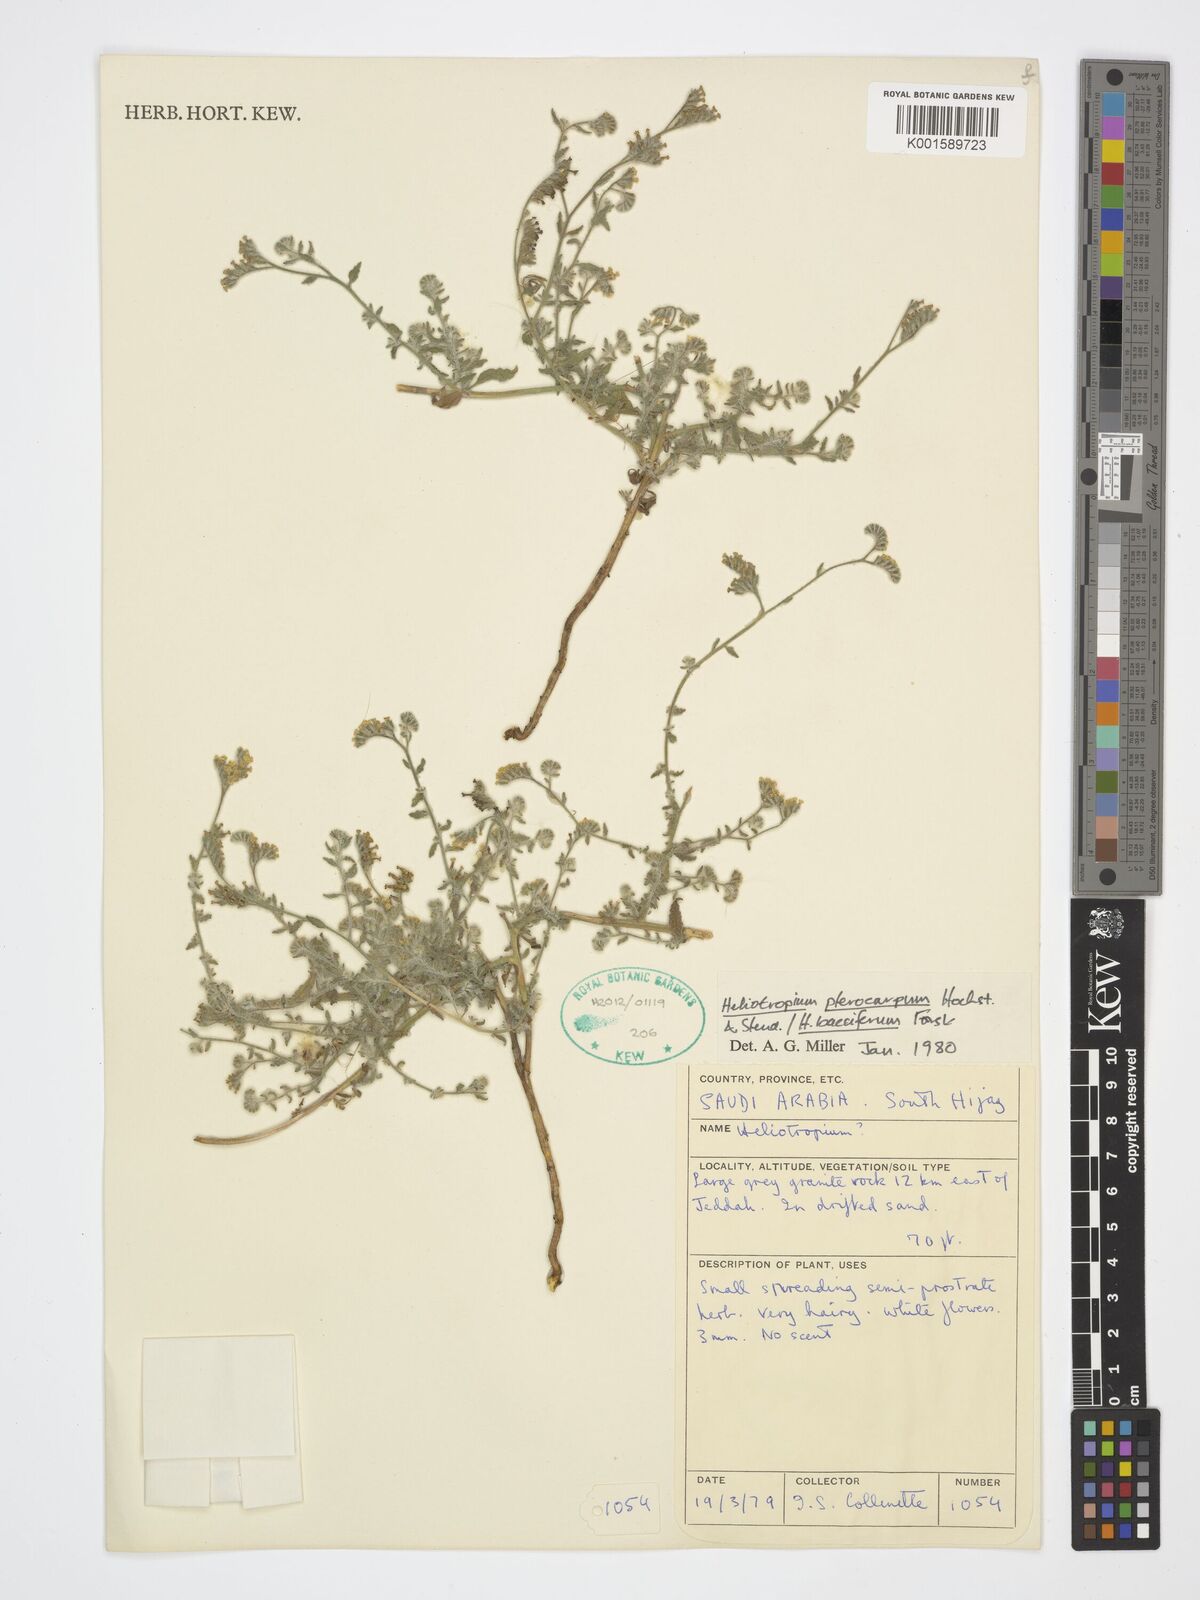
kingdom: Plantae
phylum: Tracheophyta
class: Magnoliopsida
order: Boraginales
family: Heliotropiaceae
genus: Heliotropium
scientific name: Heliotropium pterocarpum
